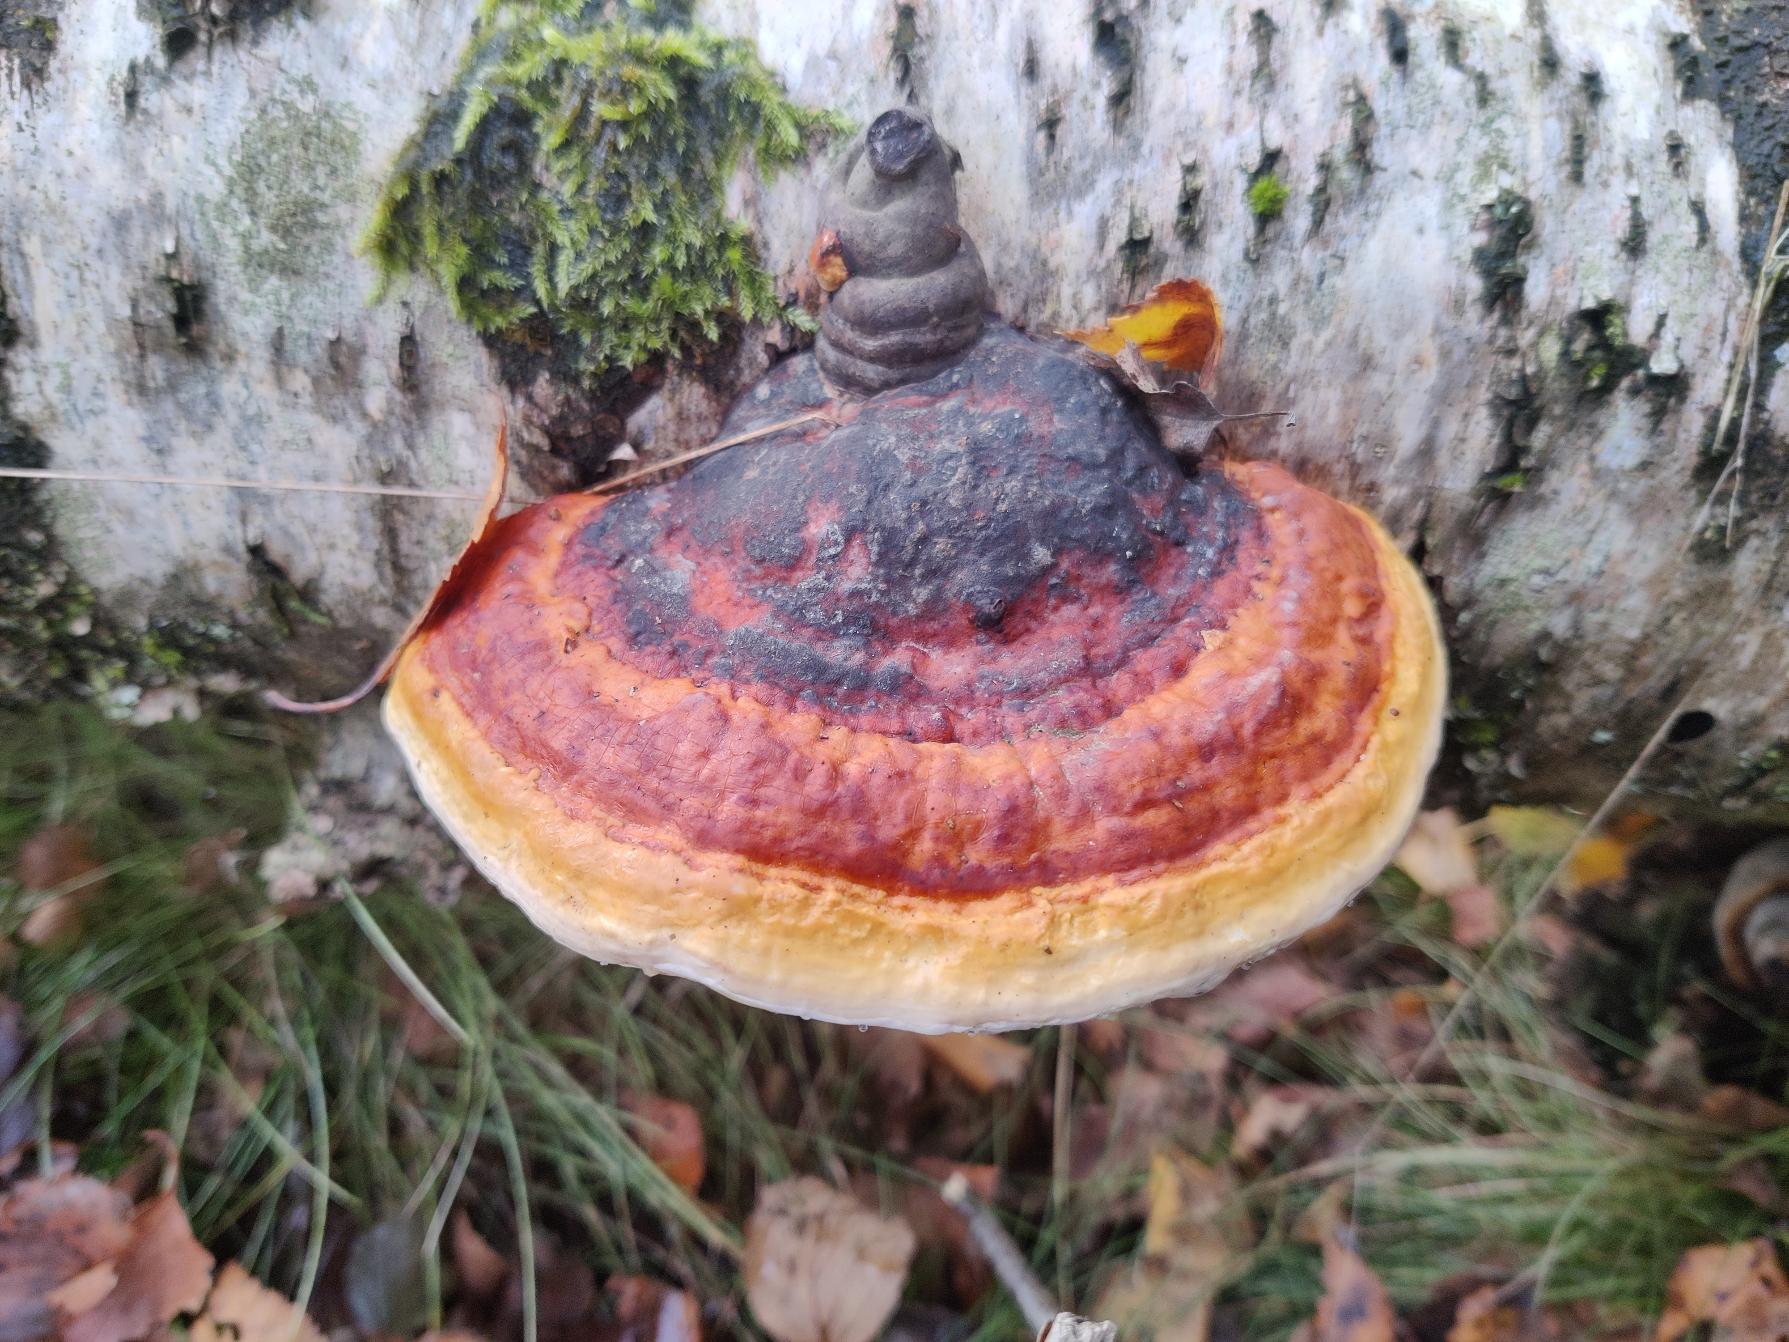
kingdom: Fungi
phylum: Basidiomycota
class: Agaricomycetes
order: Polyporales
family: Fomitopsidaceae
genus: Fomitopsis
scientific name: Fomitopsis pinicola
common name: Randbæltet hovporesvamp
